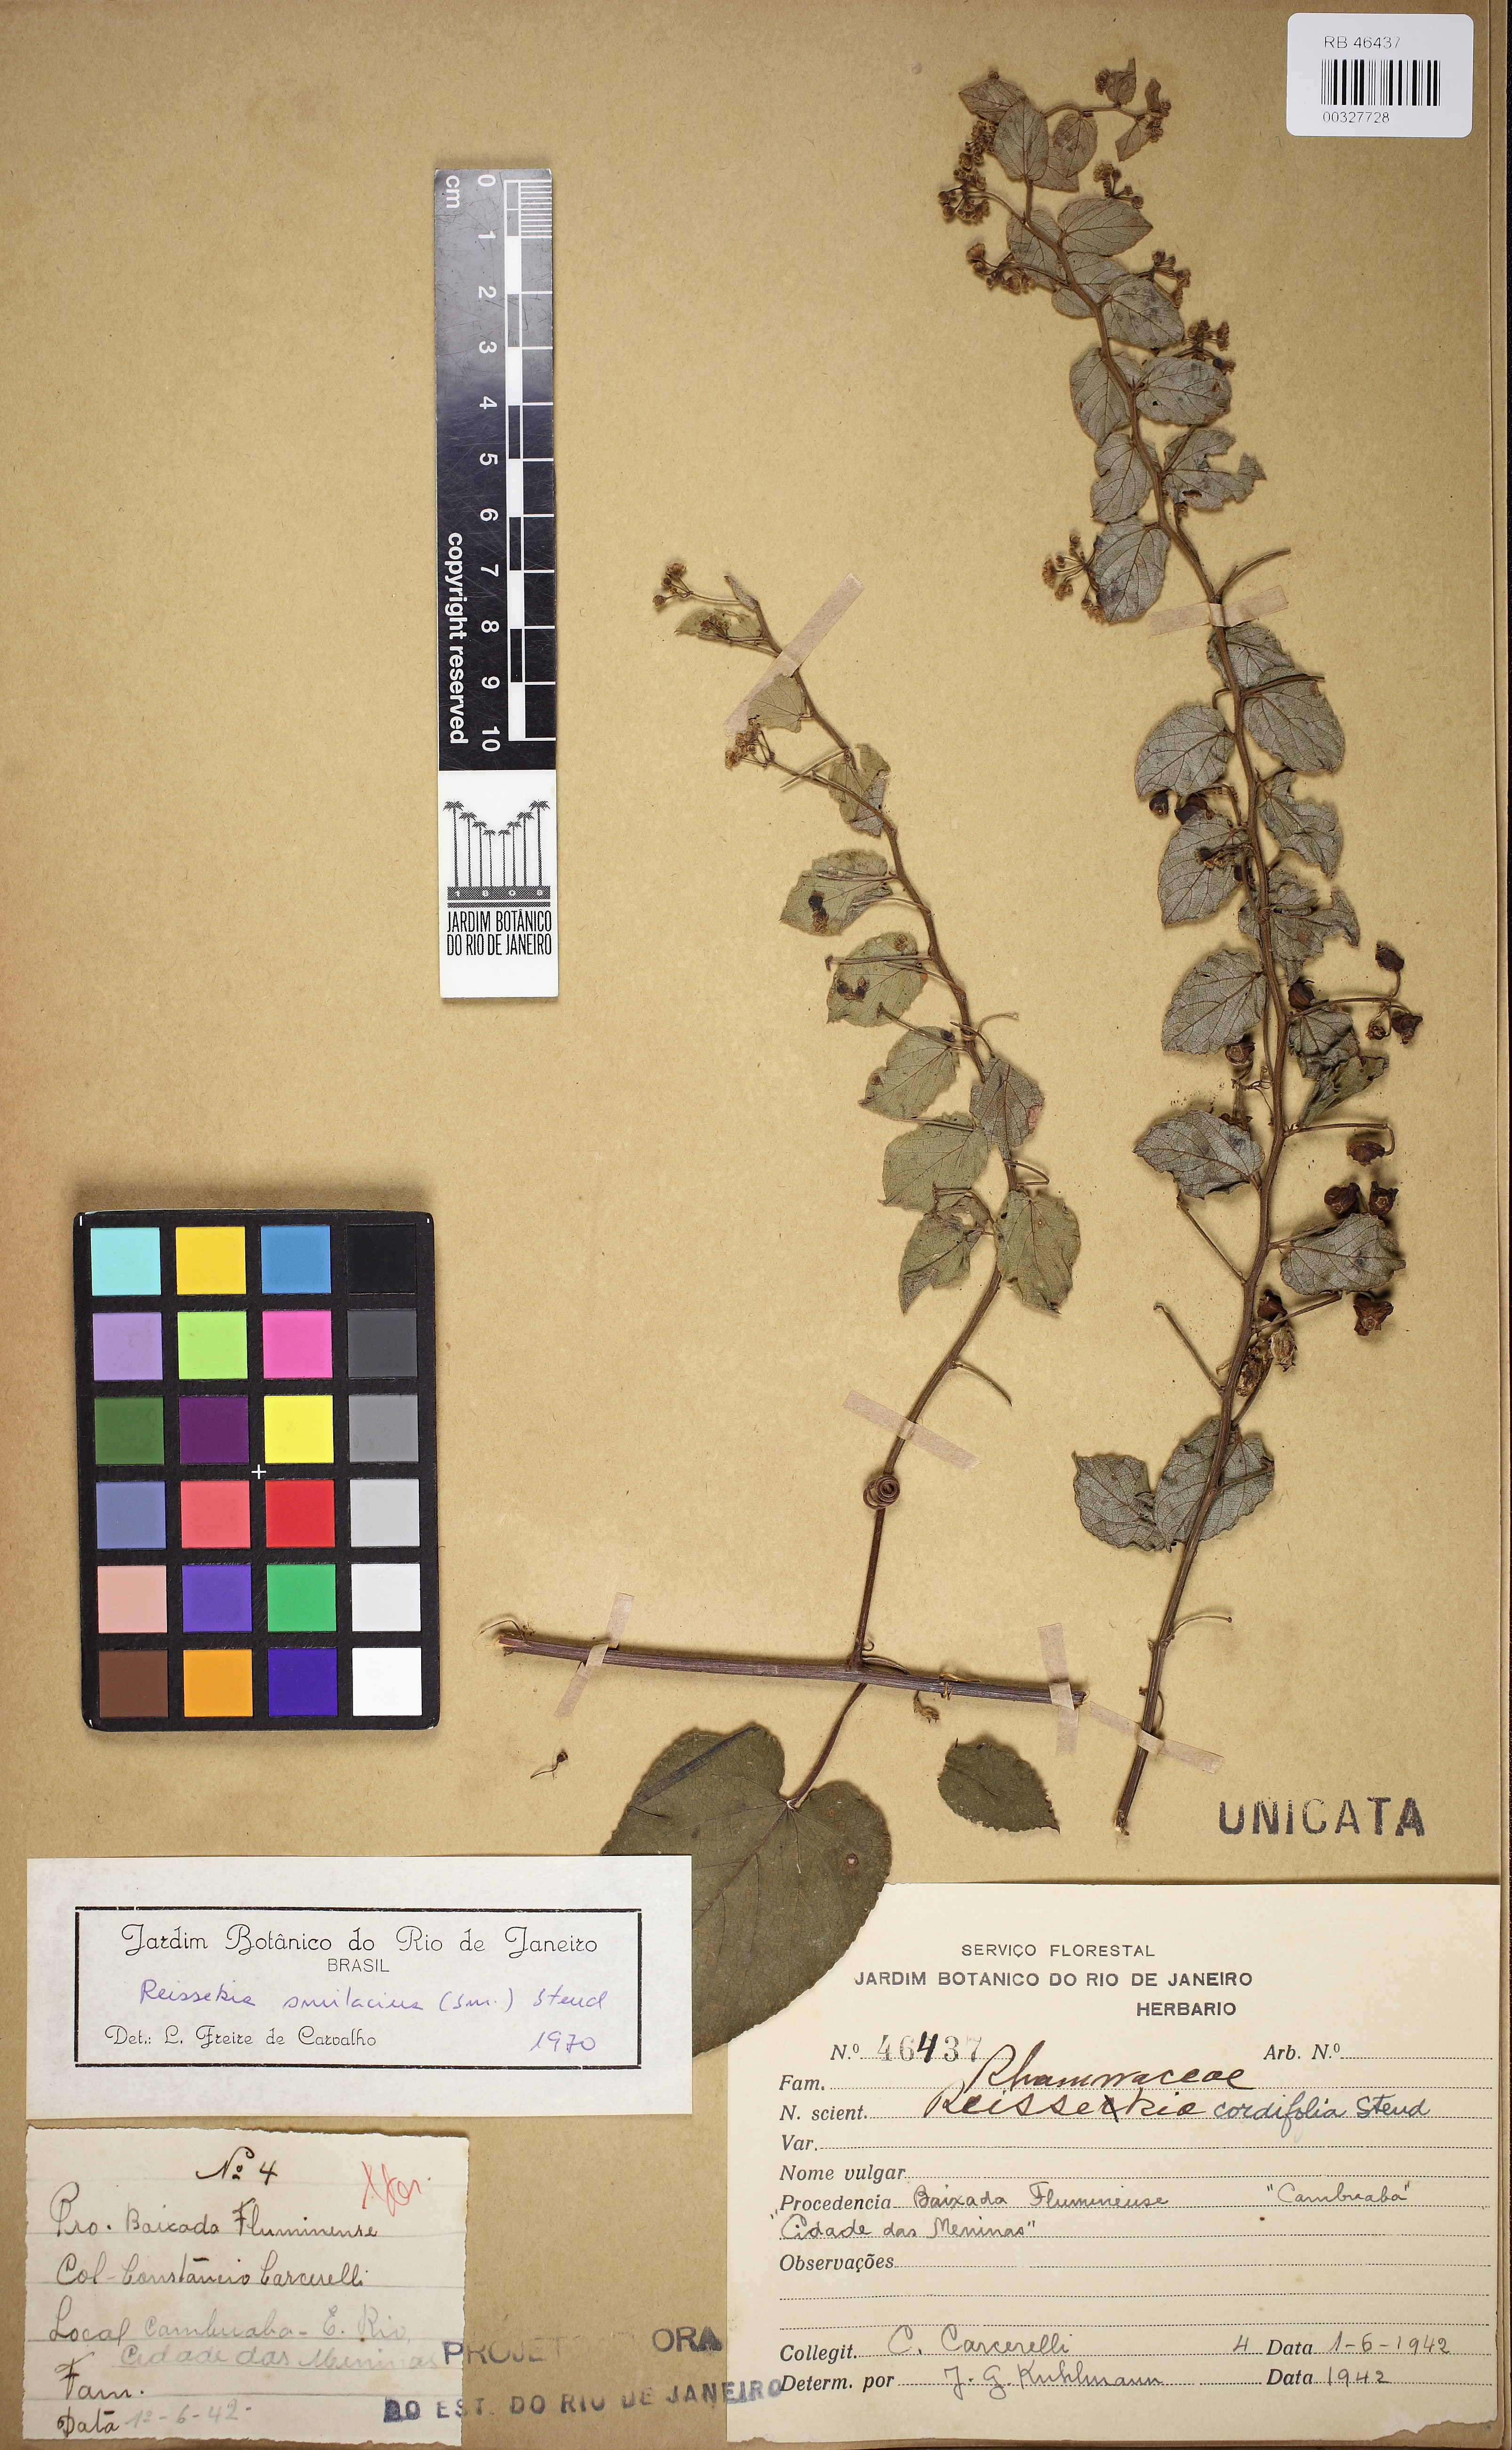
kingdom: Plantae
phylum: Tracheophyta
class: Magnoliopsida
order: Rosales
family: Rhamnaceae
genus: Reissekia
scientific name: Reissekia smilacina
